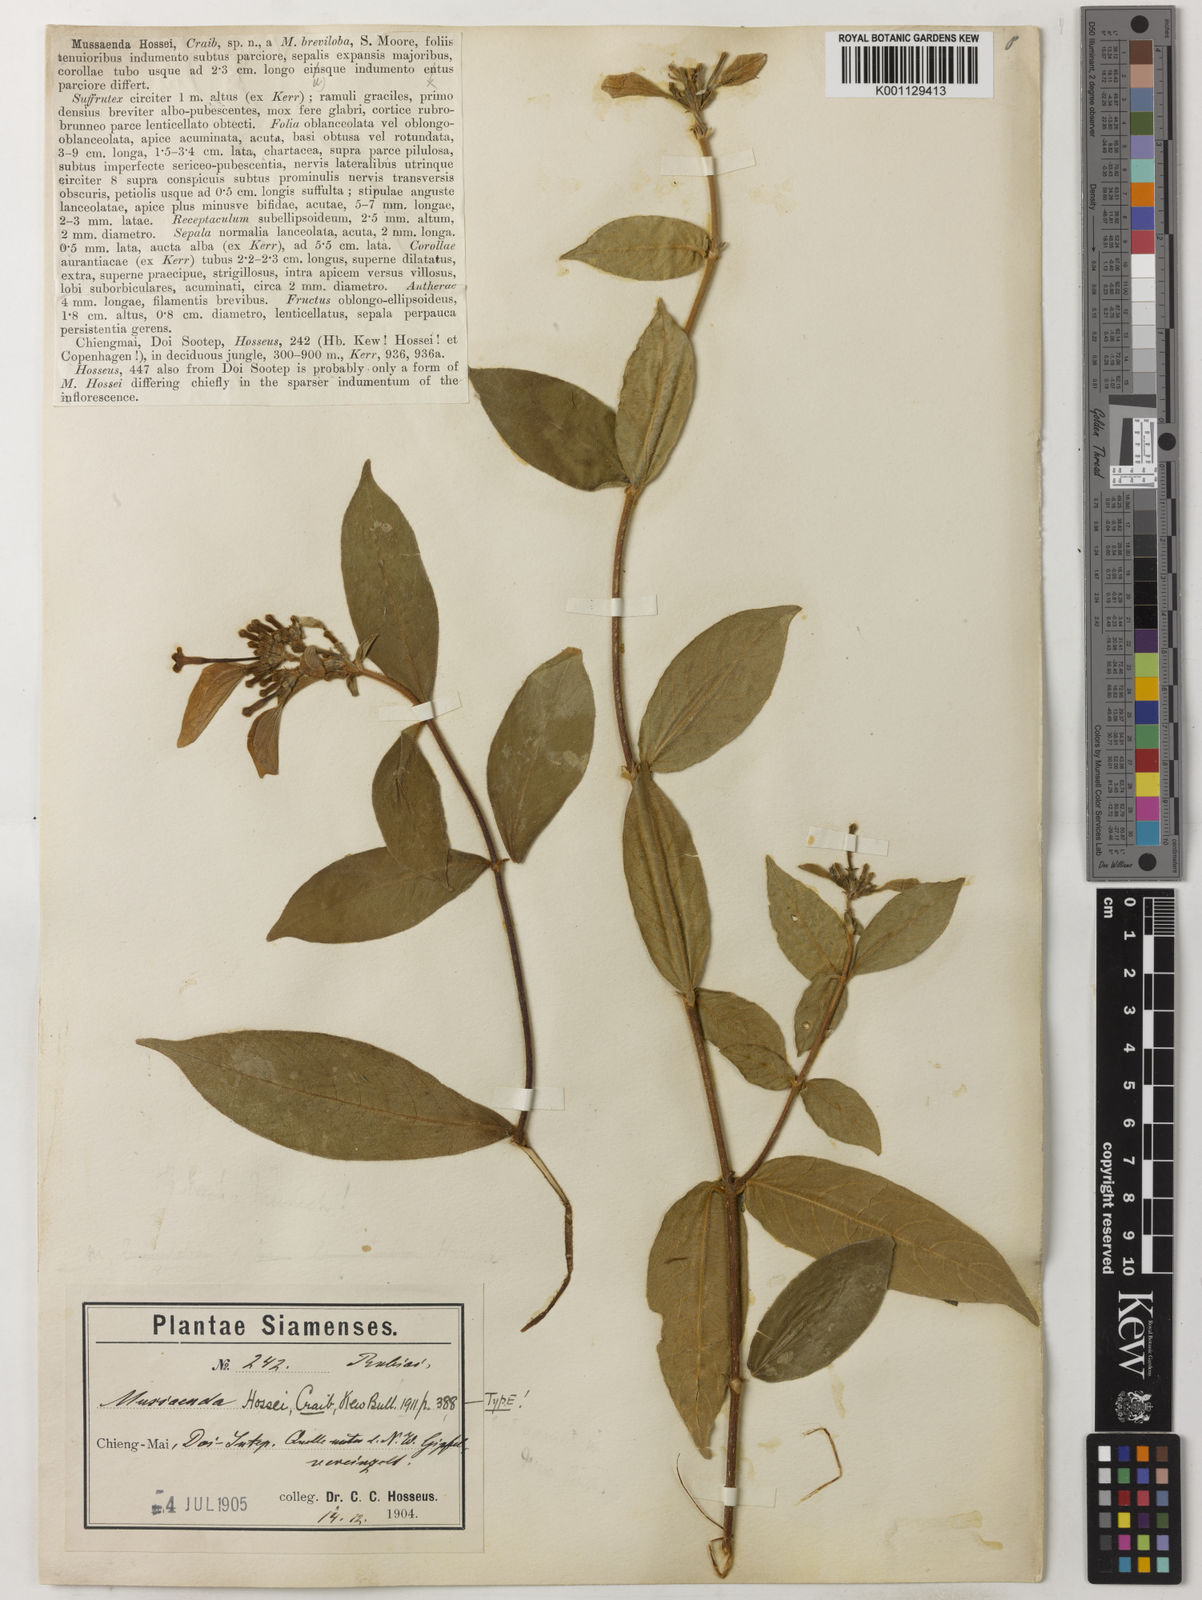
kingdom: Plantae
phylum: Tracheophyta
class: Magnoliopsida
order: Gentianales
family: Rubiaceae
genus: Mussaenda
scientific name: Mussaenda sanderiana
